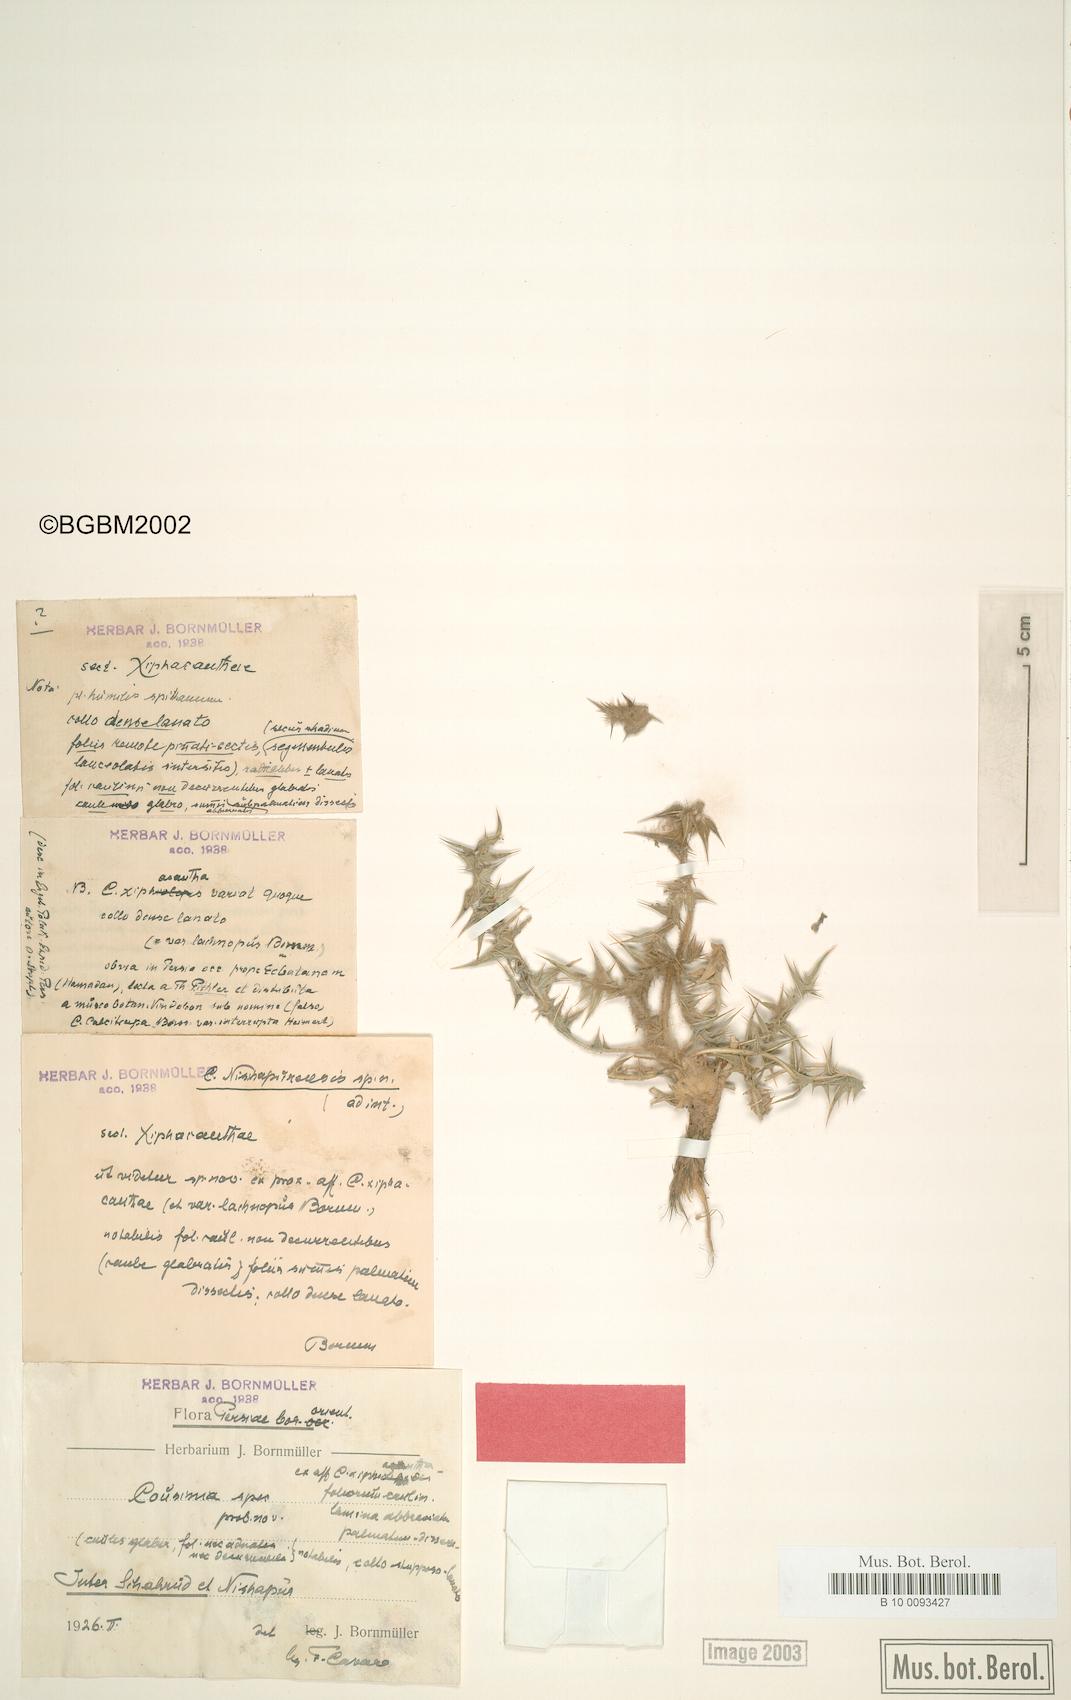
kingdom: Plantae
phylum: Tracheophyta
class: Magnoliopsida
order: Asterales
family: Asteraceae
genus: Cousinia
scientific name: Cousinia nischapurensis
